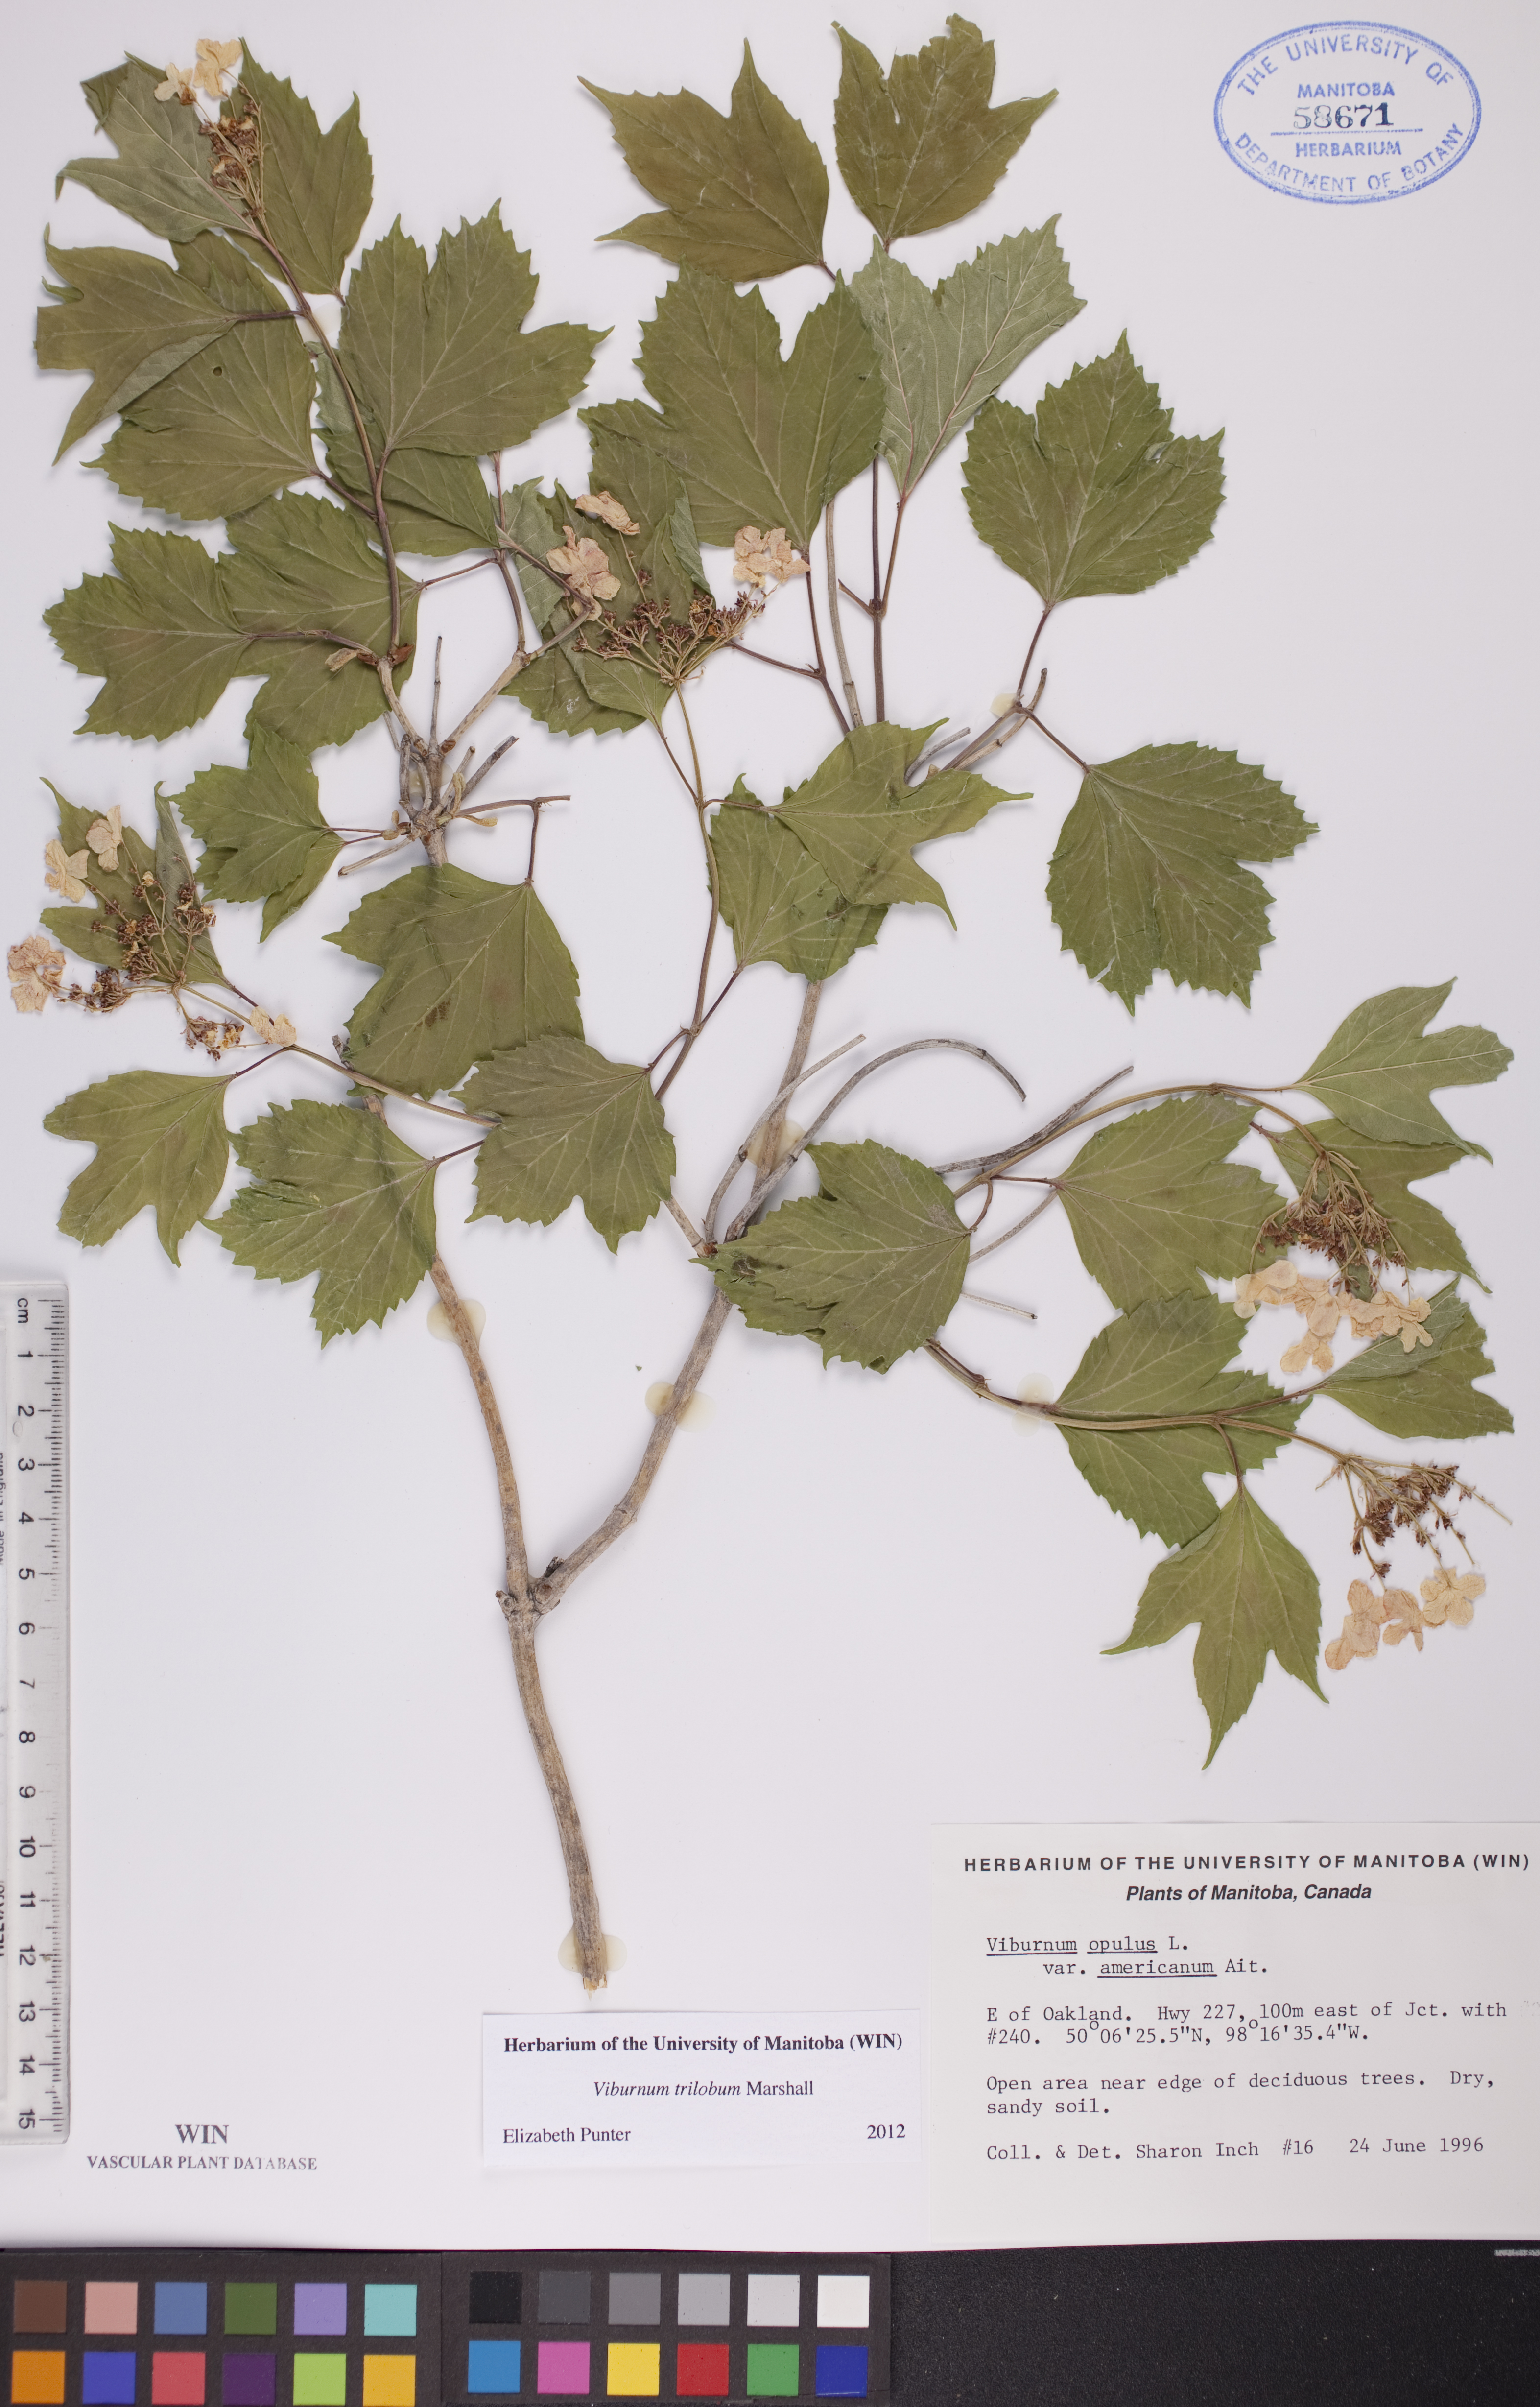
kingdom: Plantae
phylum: Tracheophyta
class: Magnoliopsida
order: Dipsacales
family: Viburnaceae
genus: Viburnum
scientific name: Viburnum trilobum
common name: American cranberrybush
